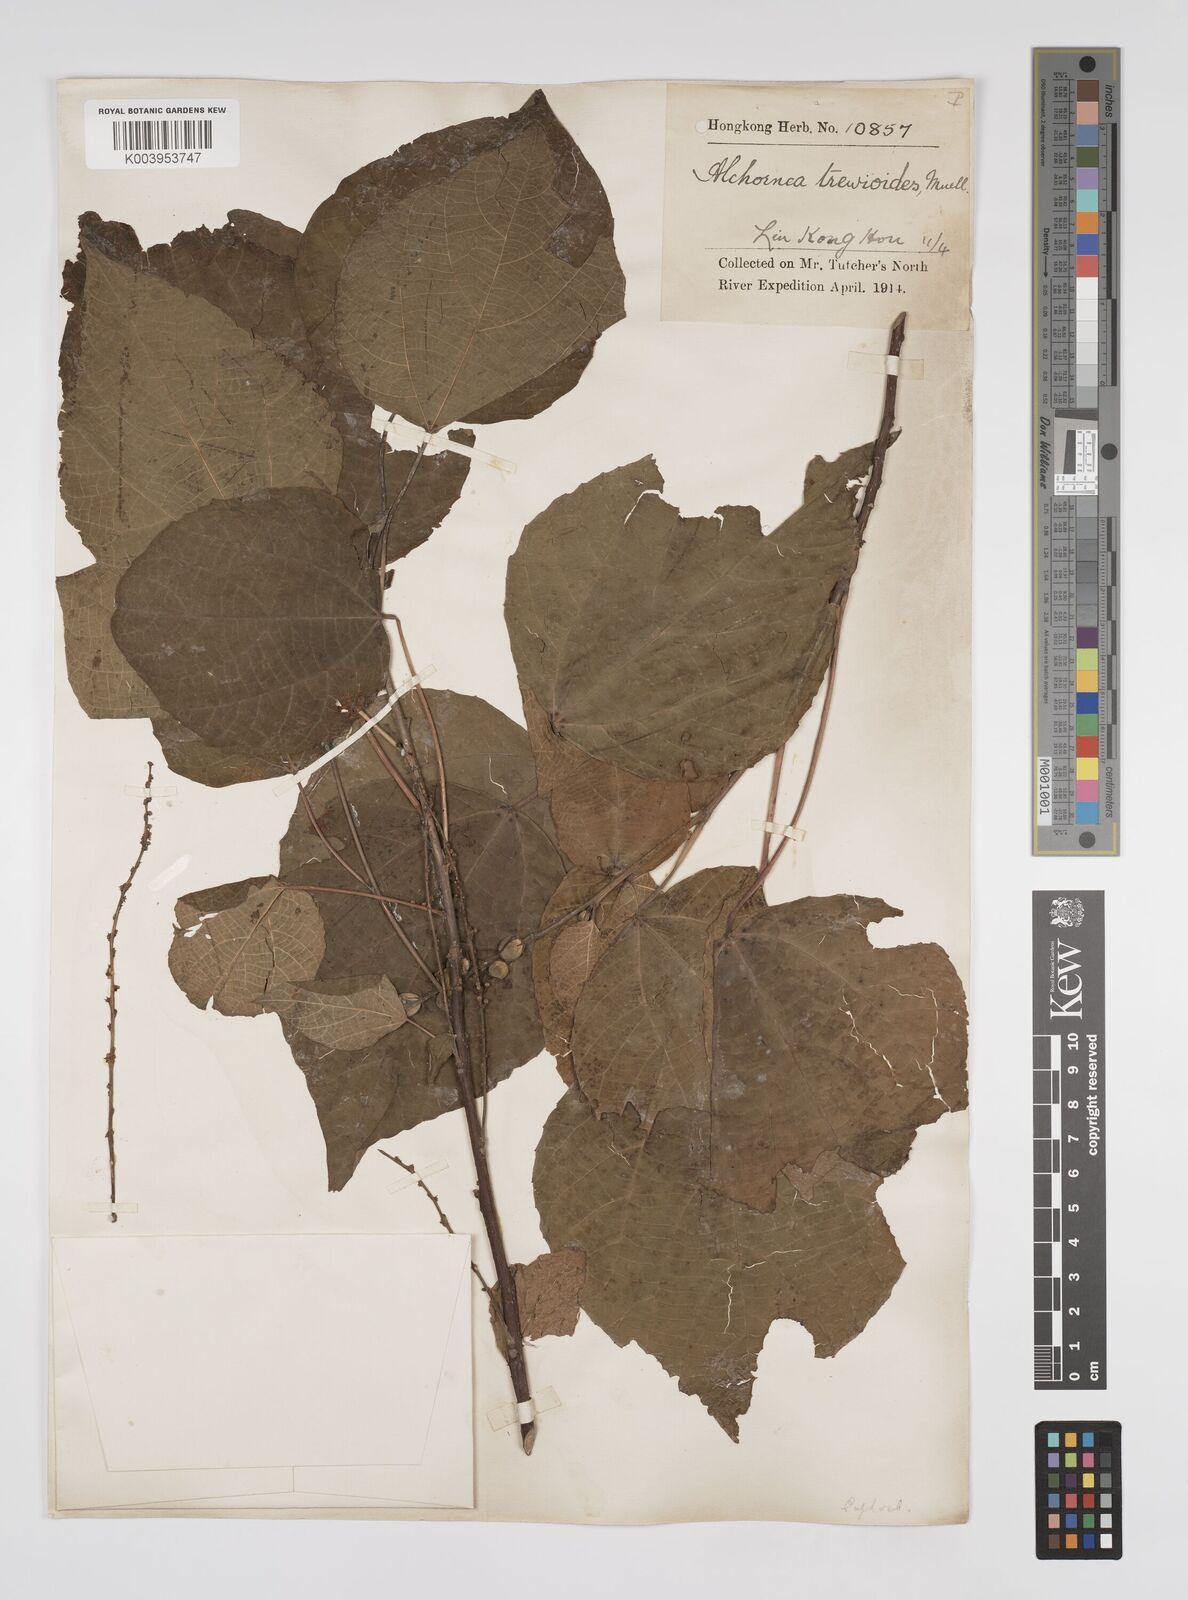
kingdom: Plantae
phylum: Tracheophyta
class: Magnoliopsida
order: Malpighiales
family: Euphorbiaceae
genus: Alchornea
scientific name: Alchornea trewioides
